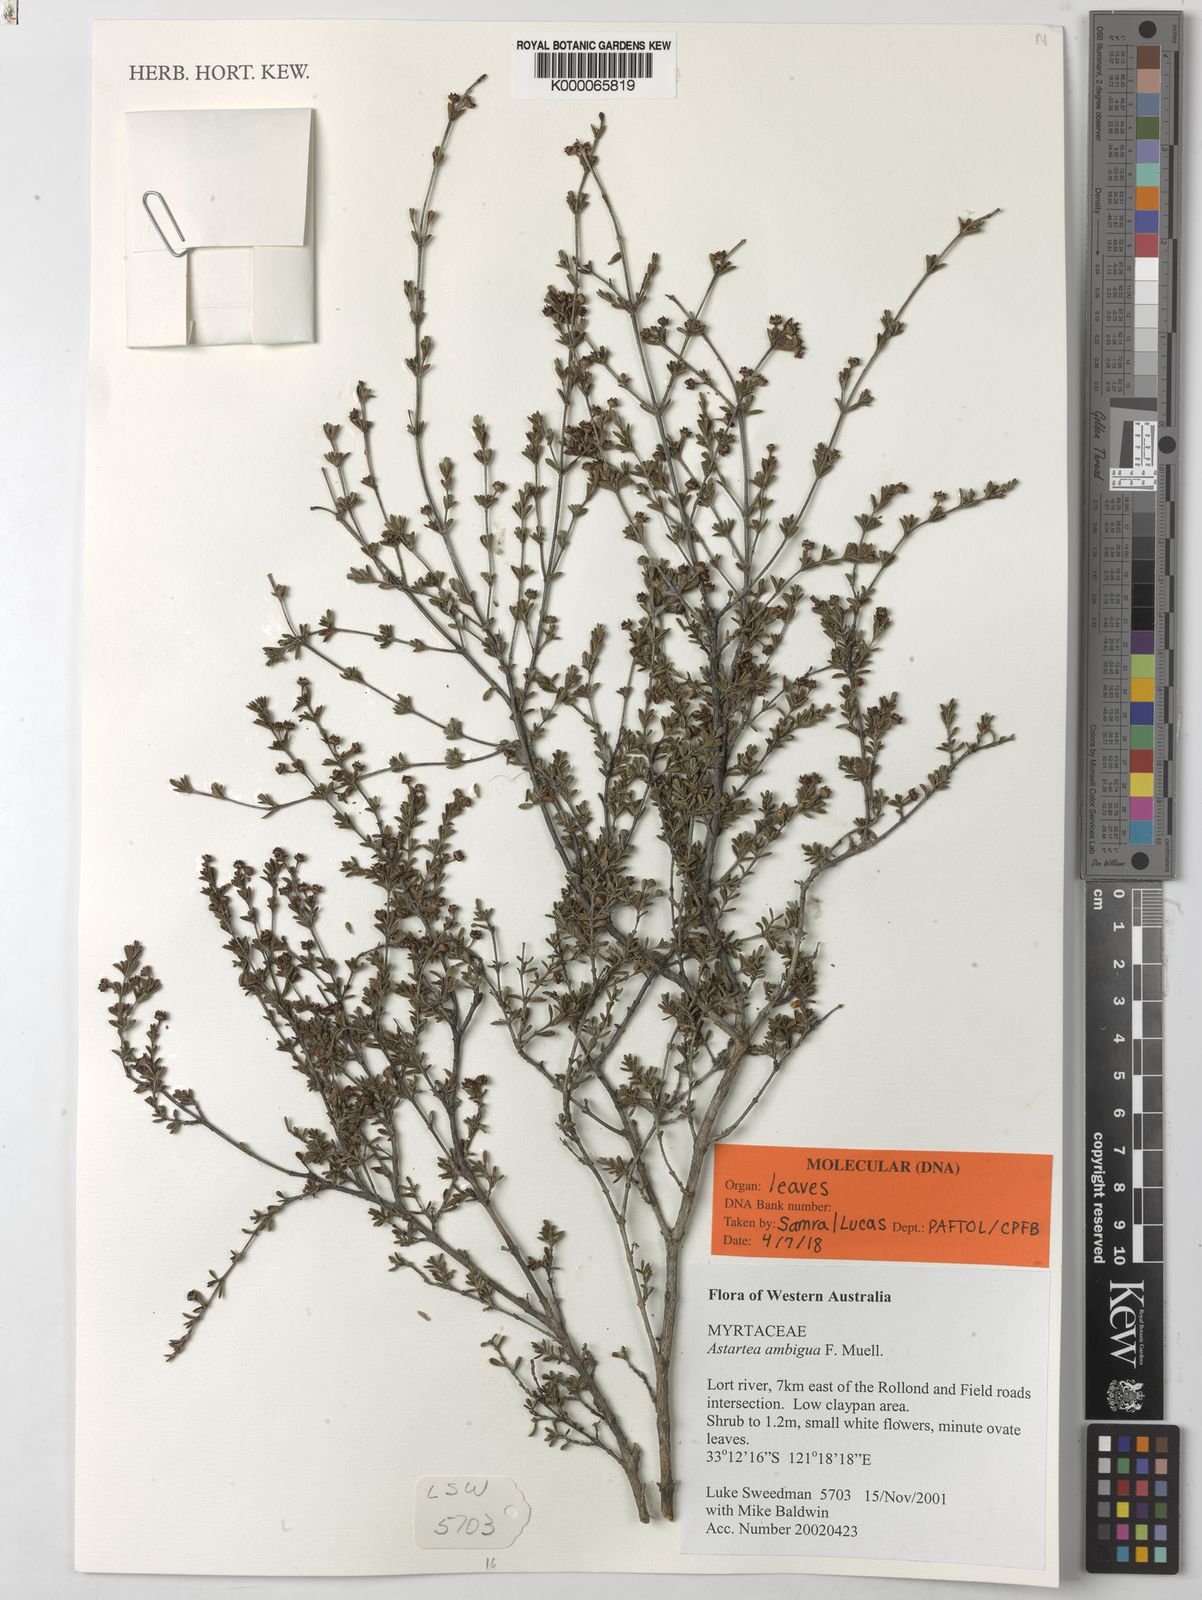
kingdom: Plantae
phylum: Tracheophyta
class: Magnoliopsida
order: Myrtales
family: Myrtaceae
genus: Cyathostemon
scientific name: Cyathostemon ambiguus
